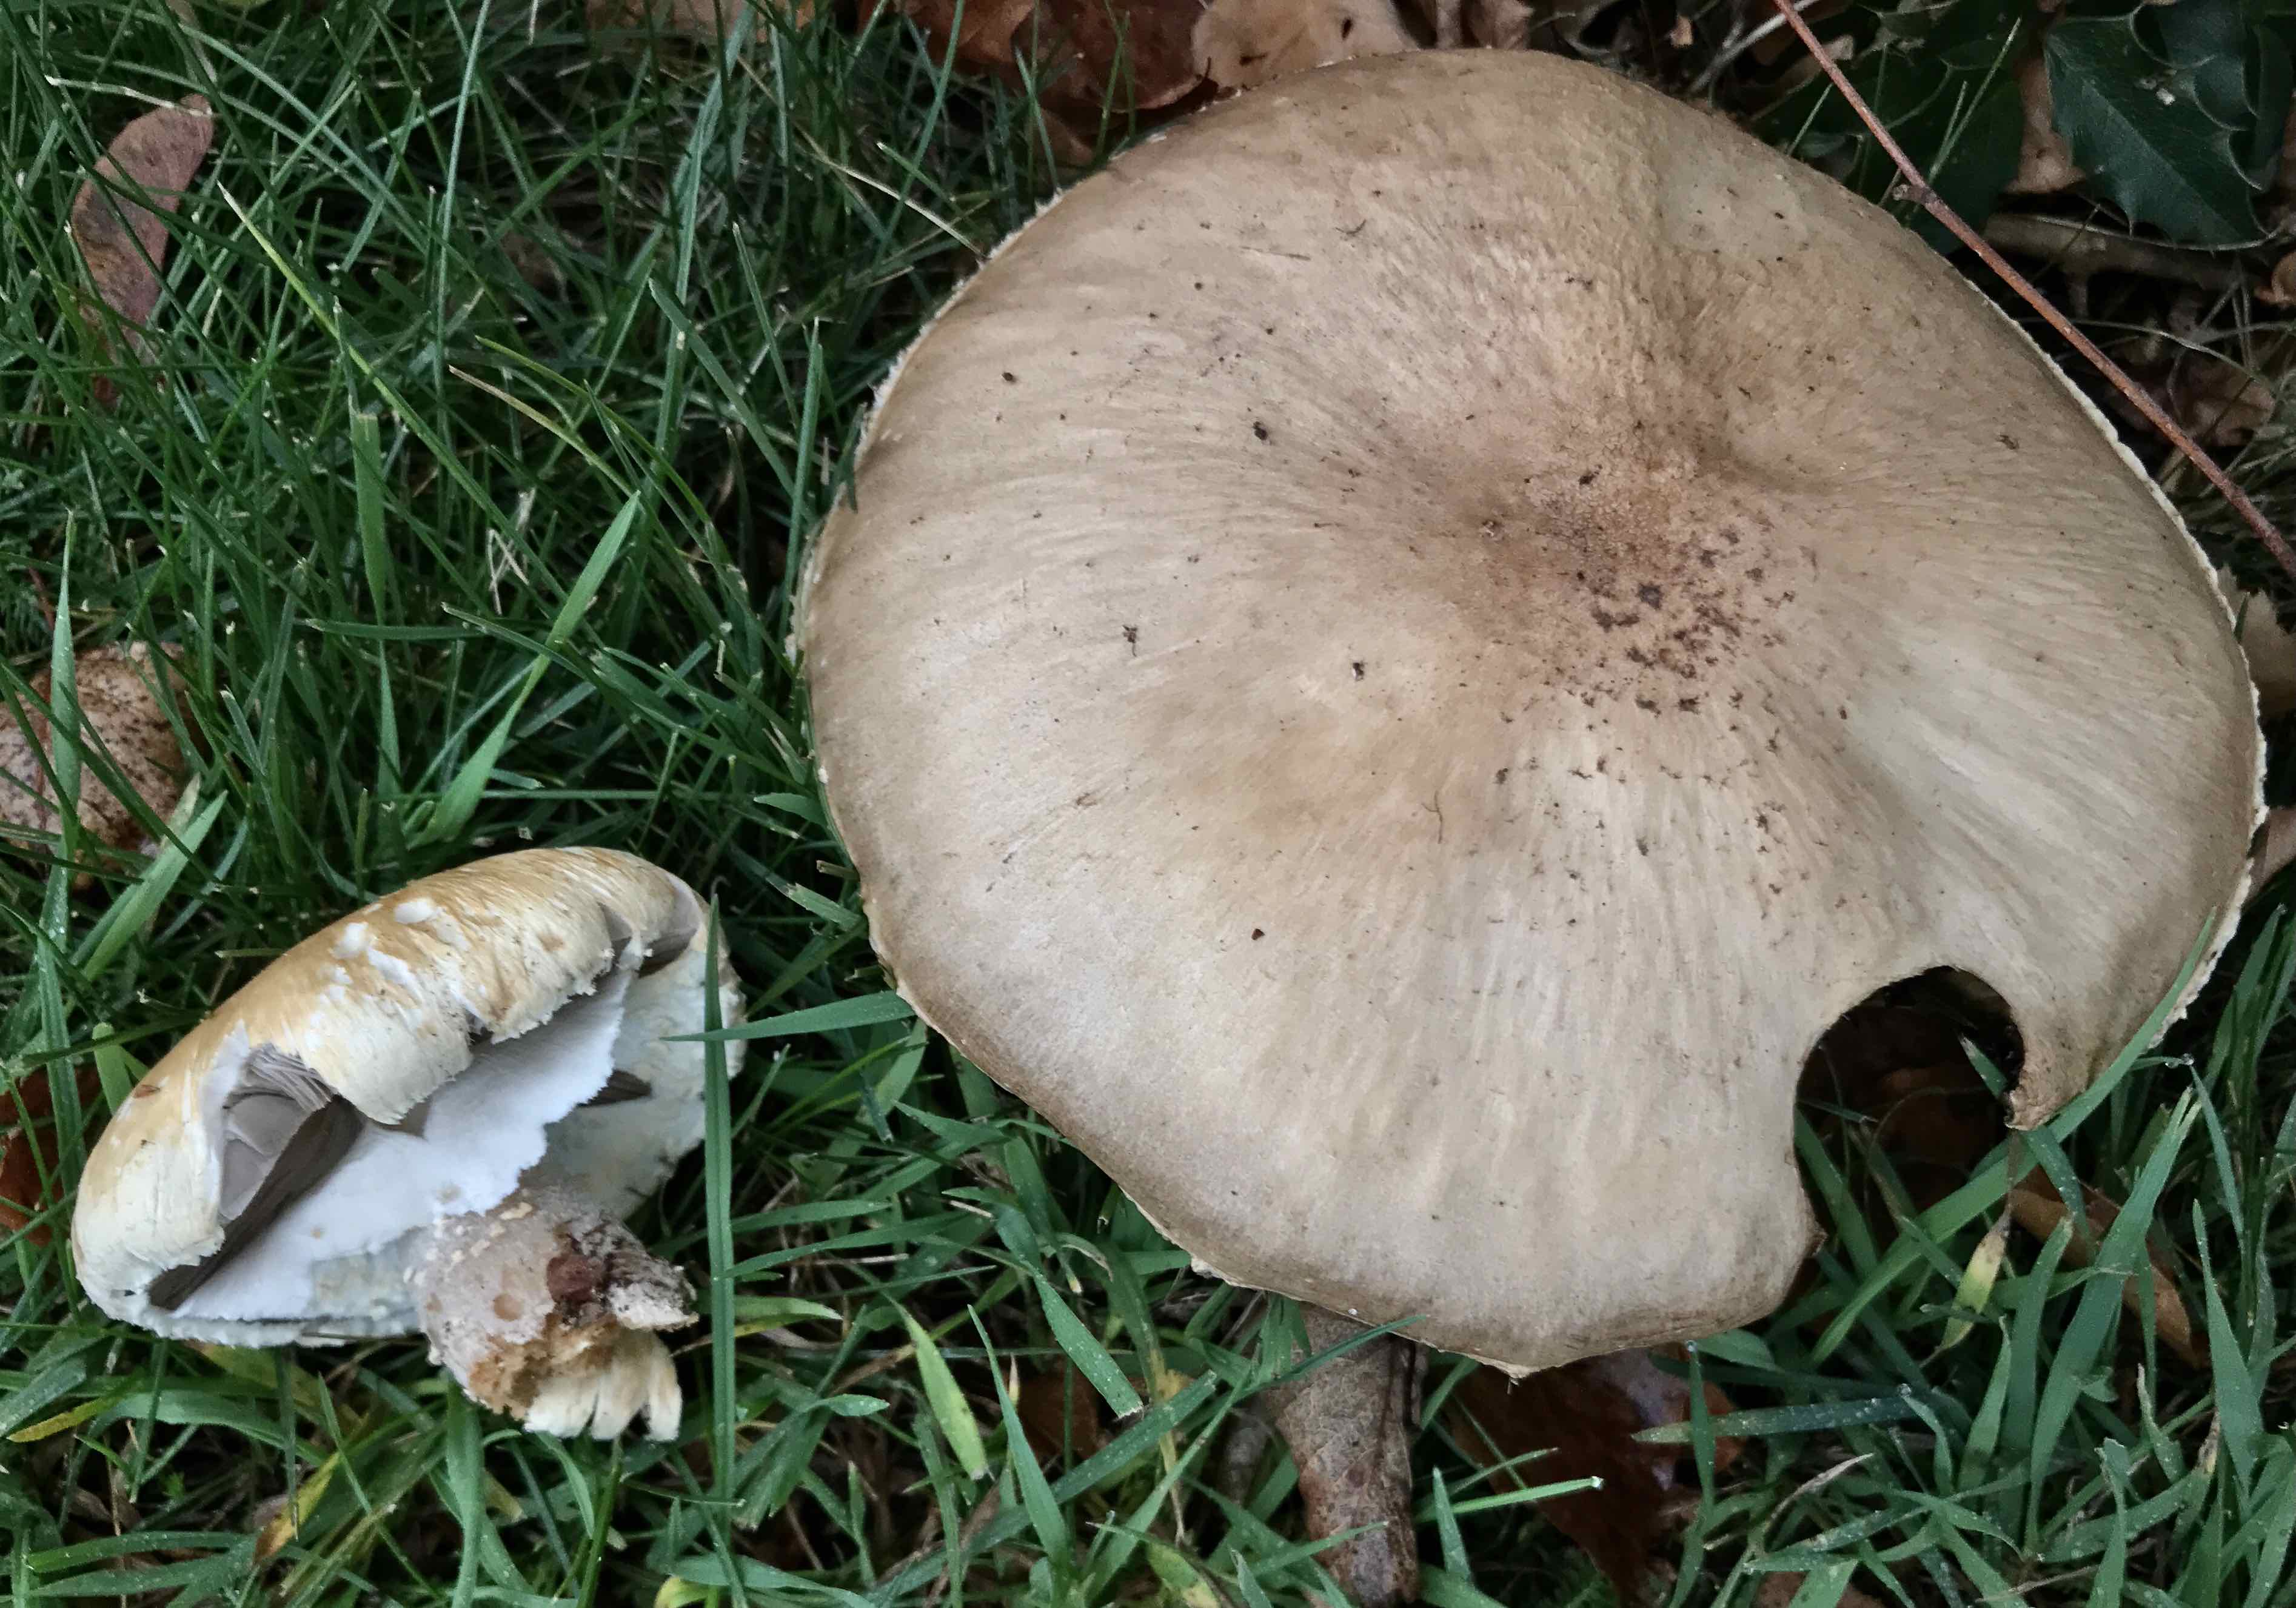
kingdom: Fungi
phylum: Basidiomycota
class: Agaricomycetes
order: Agaricales
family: Agaricaceae
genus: Agaricus
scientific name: Agaricus augustus
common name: prægtig champignon
